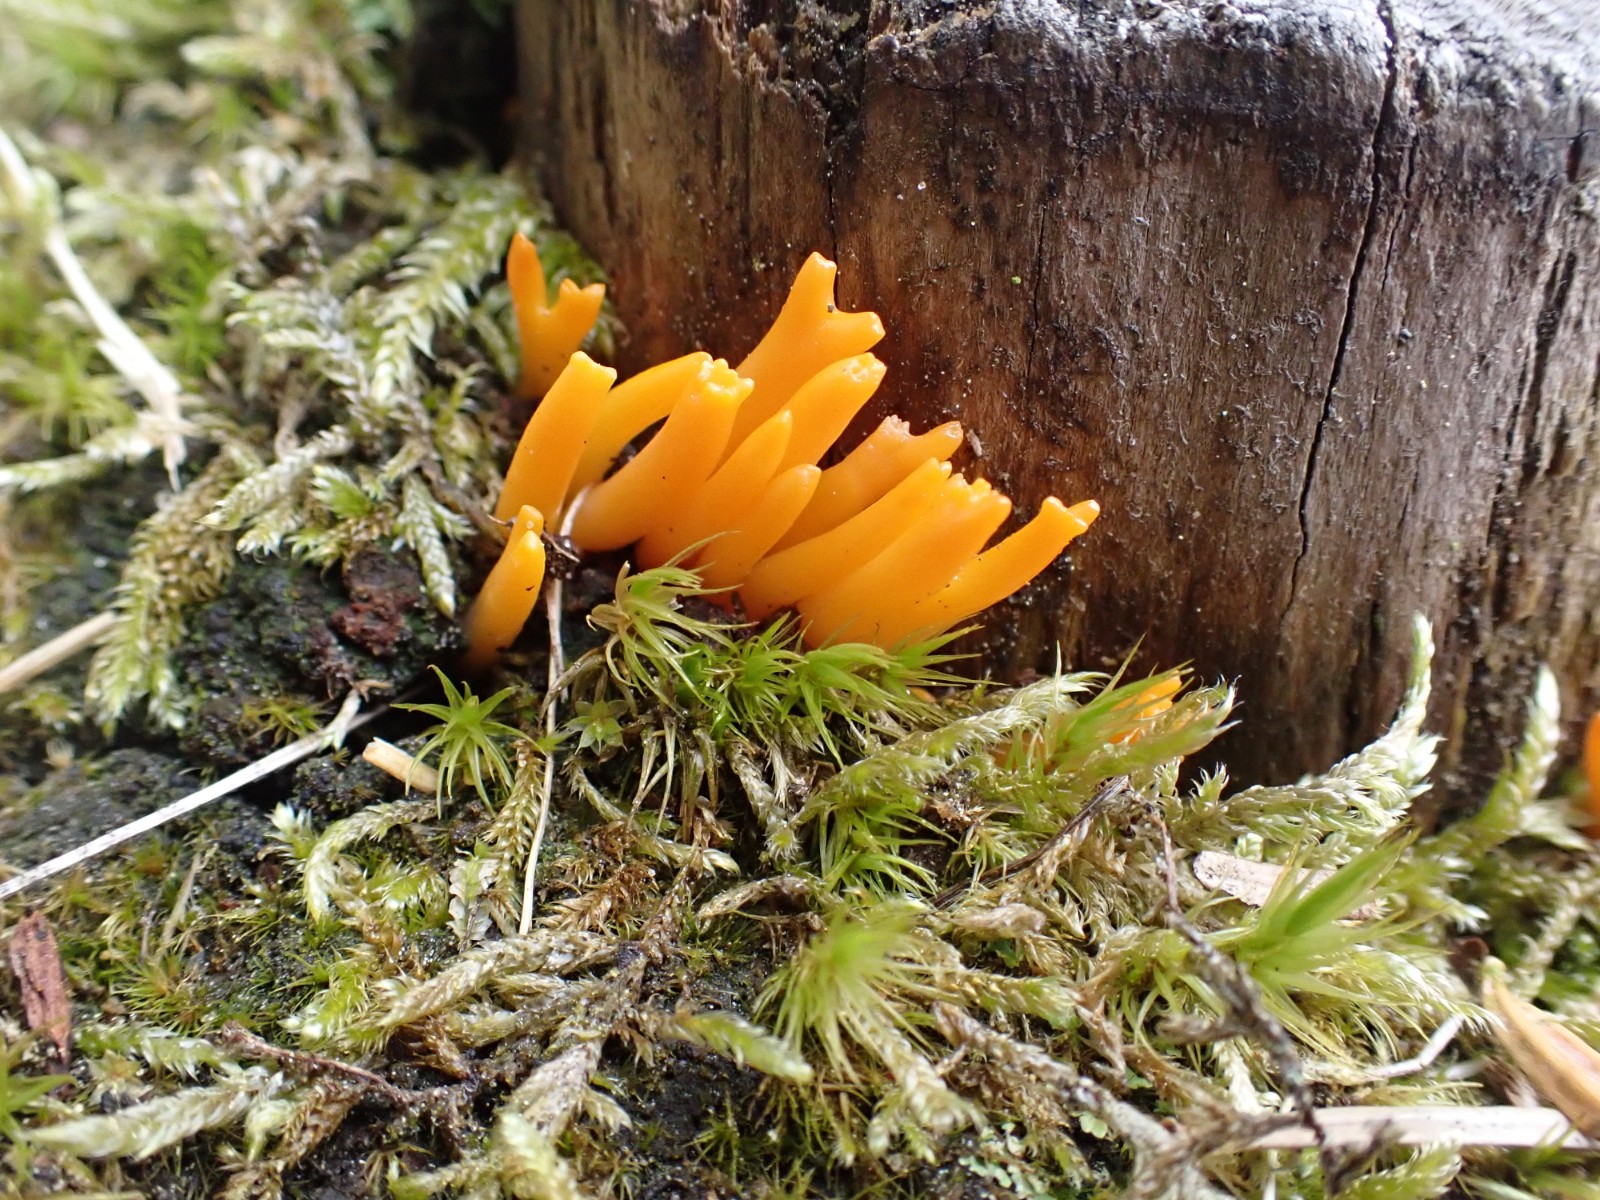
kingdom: Fungi
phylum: Basidiomycota
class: Dacrymycetes
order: Dacrymycetales
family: Dacrymycetaceae
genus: Calocera
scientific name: Calocera viscosa
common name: almindelig guldgaffel
